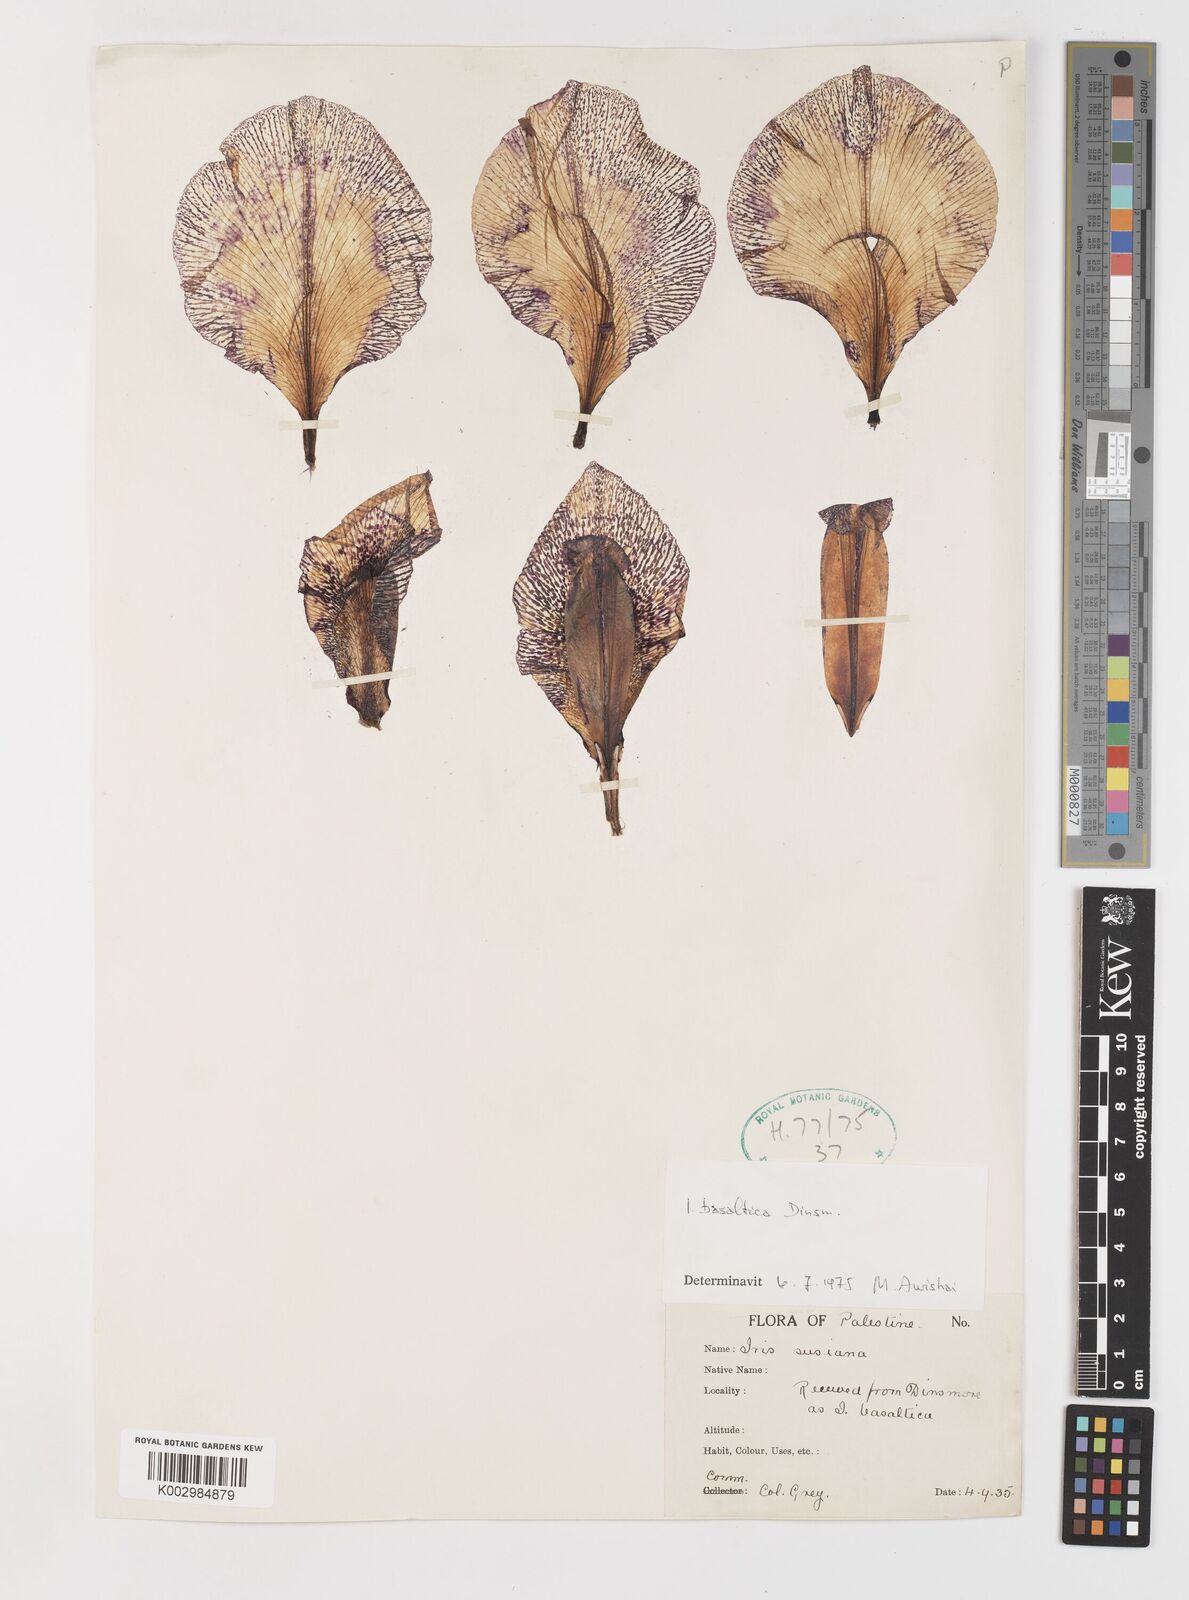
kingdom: Plantae
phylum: Tracheophyta
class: Liliopsida
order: Asparagales
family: Iridaceae
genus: Iris
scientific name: Iris basaltica
